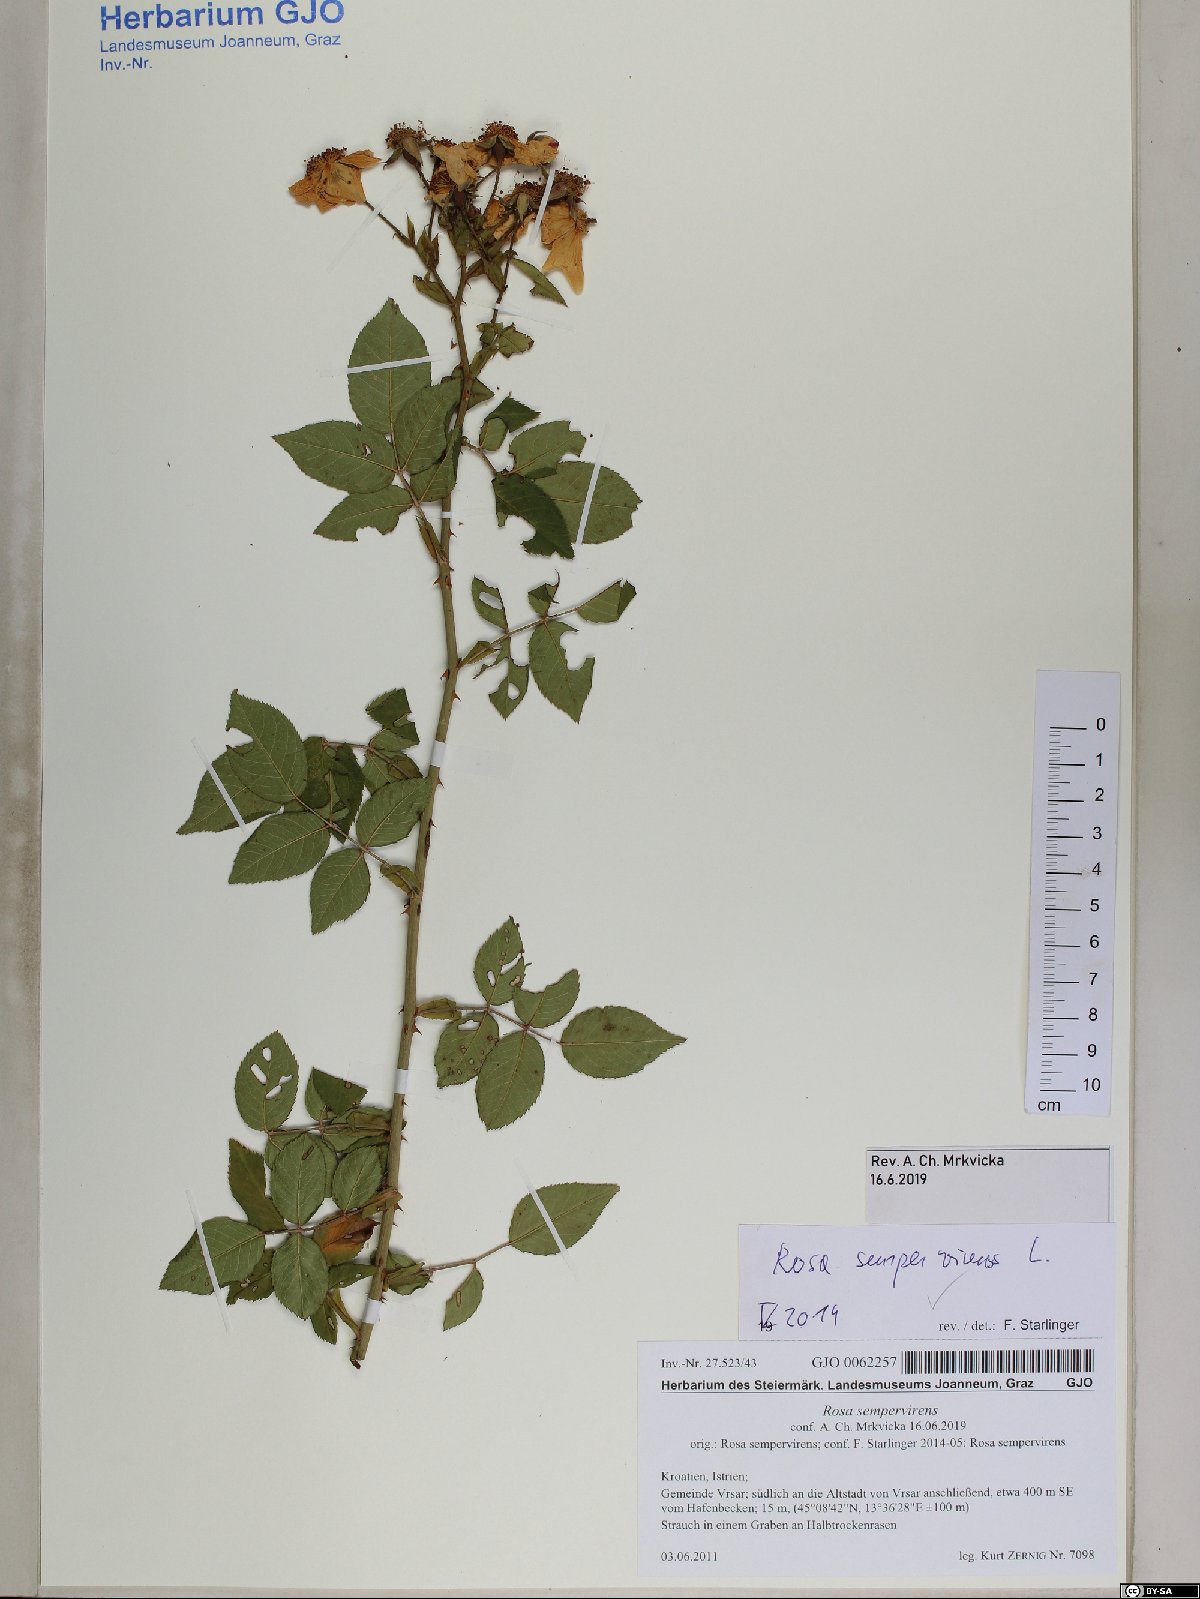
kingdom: Plantae
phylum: Tracheophyta
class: Magnoliopsida
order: Rosales
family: Rosaceae
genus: Rosa
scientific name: Rosa sempervirens
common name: Evergreen rose
